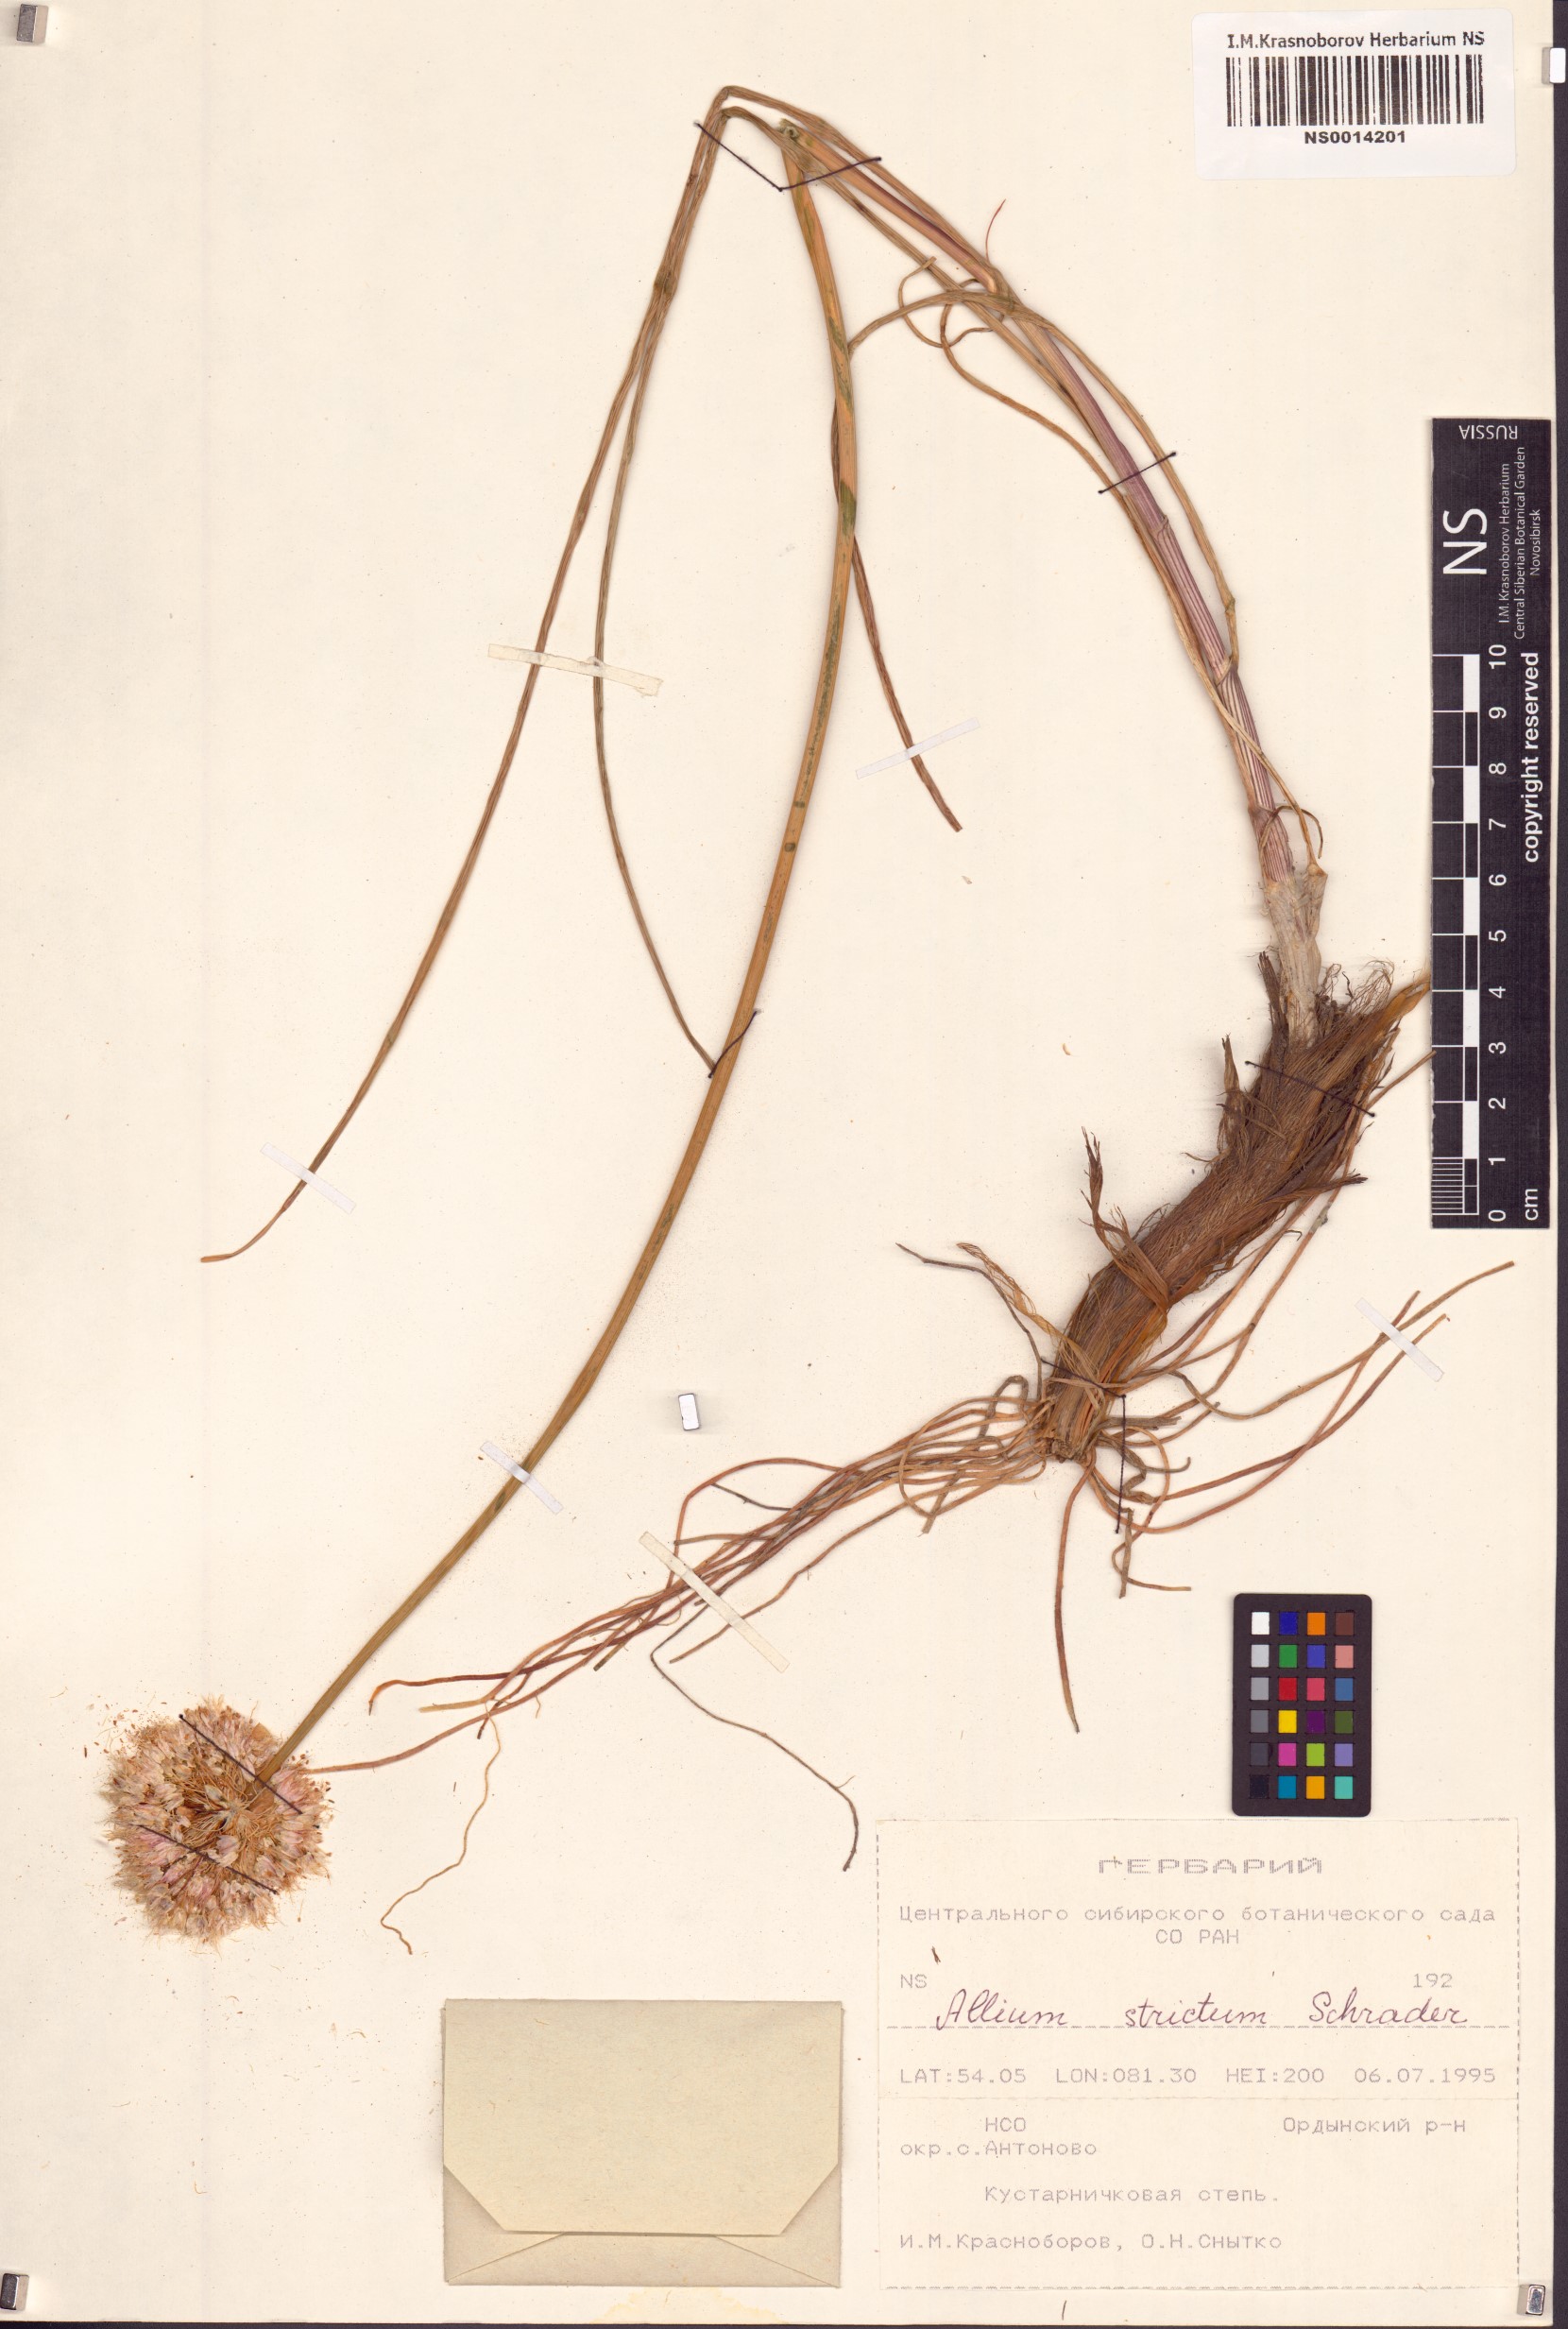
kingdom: Plantae
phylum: Tracheophyta
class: Liliopsida
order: Asparagales
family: Amaryllidaceae
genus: Allium
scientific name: Allium strictum
